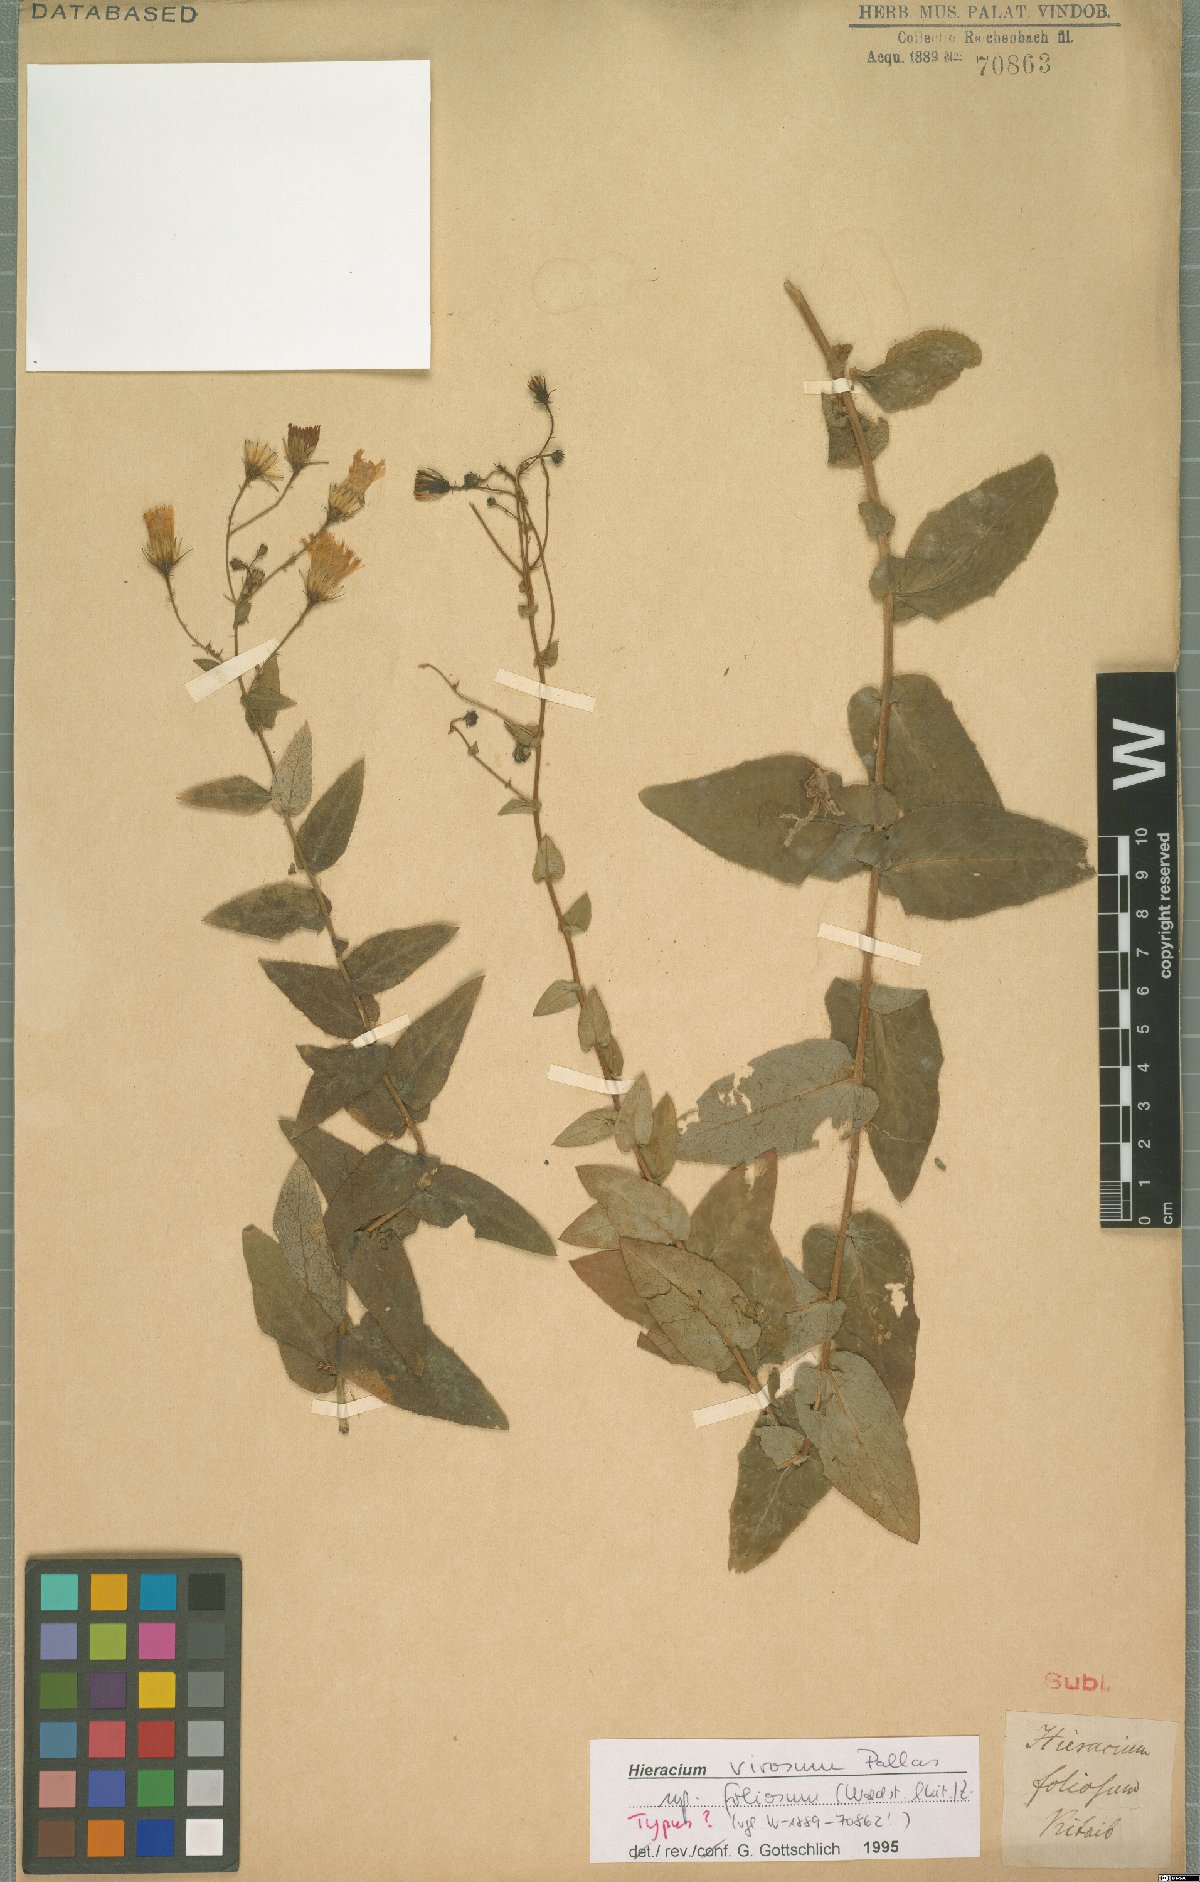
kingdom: Plantae
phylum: Tracheophyta
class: Magnoliopsida
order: Asterales
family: Asteraceae
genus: Hieracium
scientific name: Hieracium virosum
